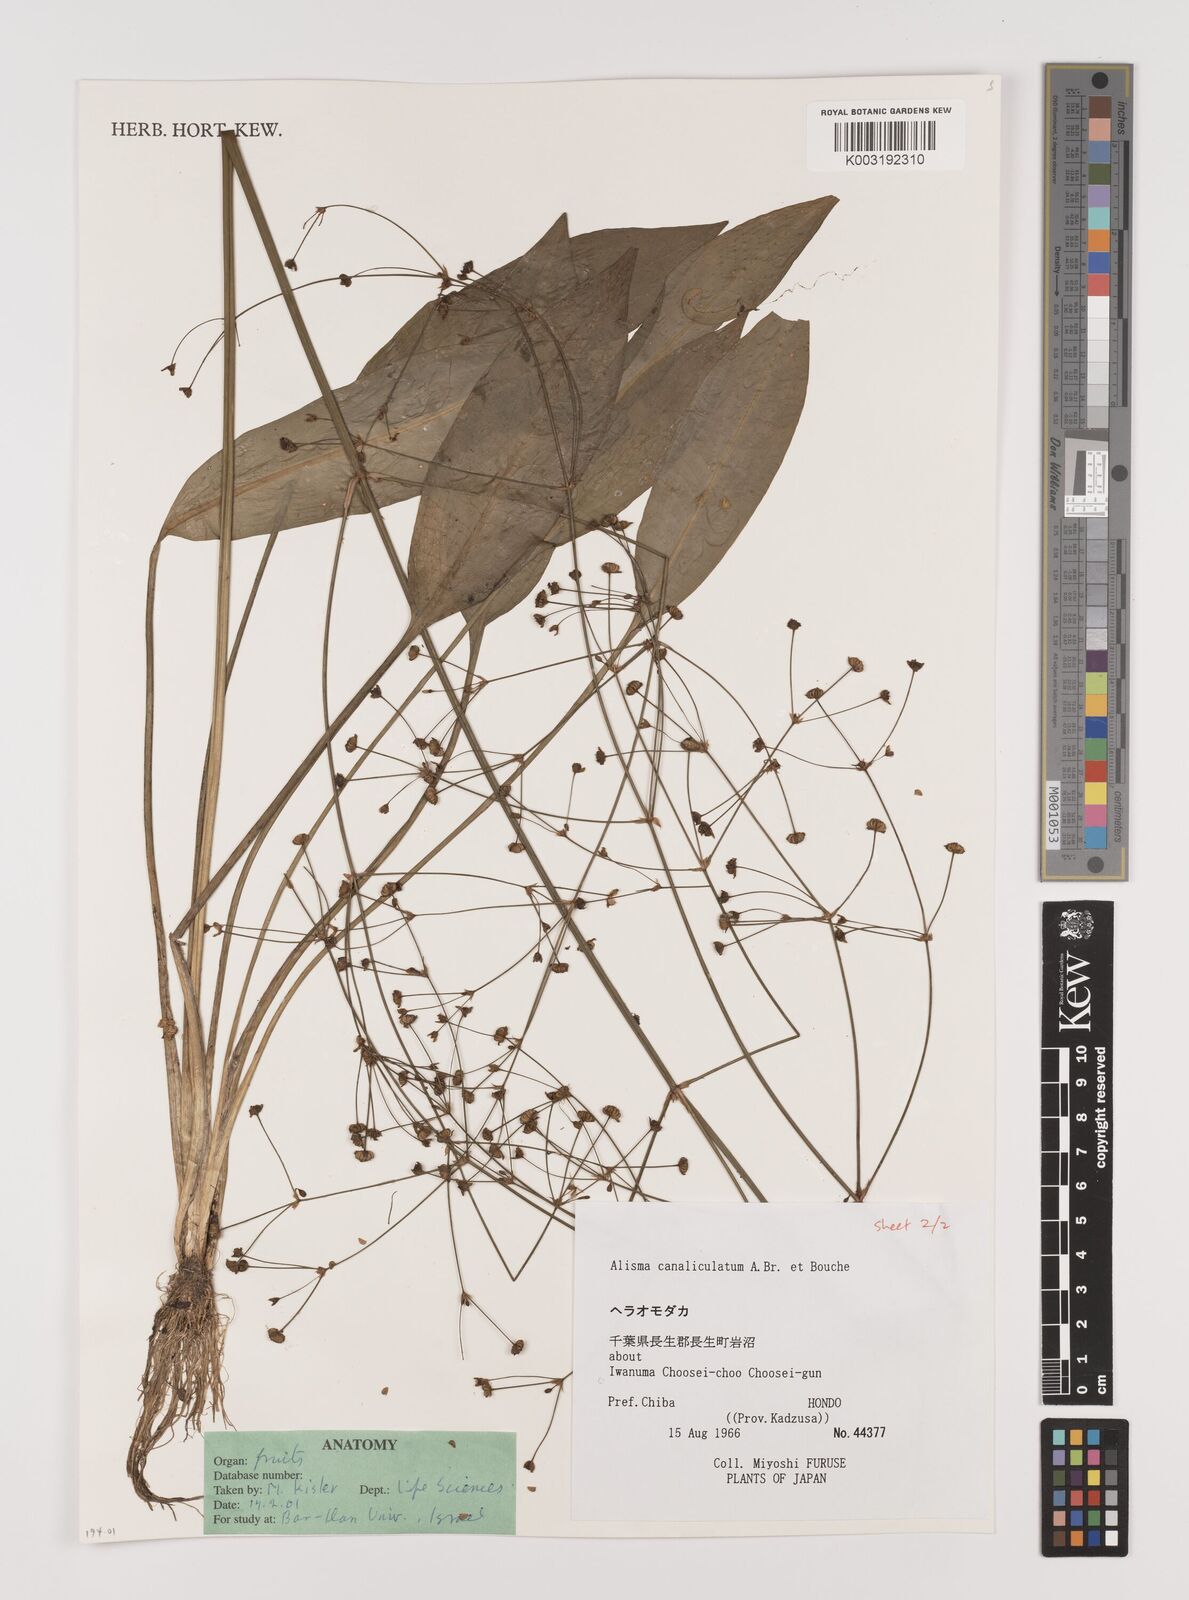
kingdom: Plantae
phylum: Tracheophyta
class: Liliopsida
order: Alismatales
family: Alismataceae
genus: Alisma
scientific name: Alisma canaliculatum
